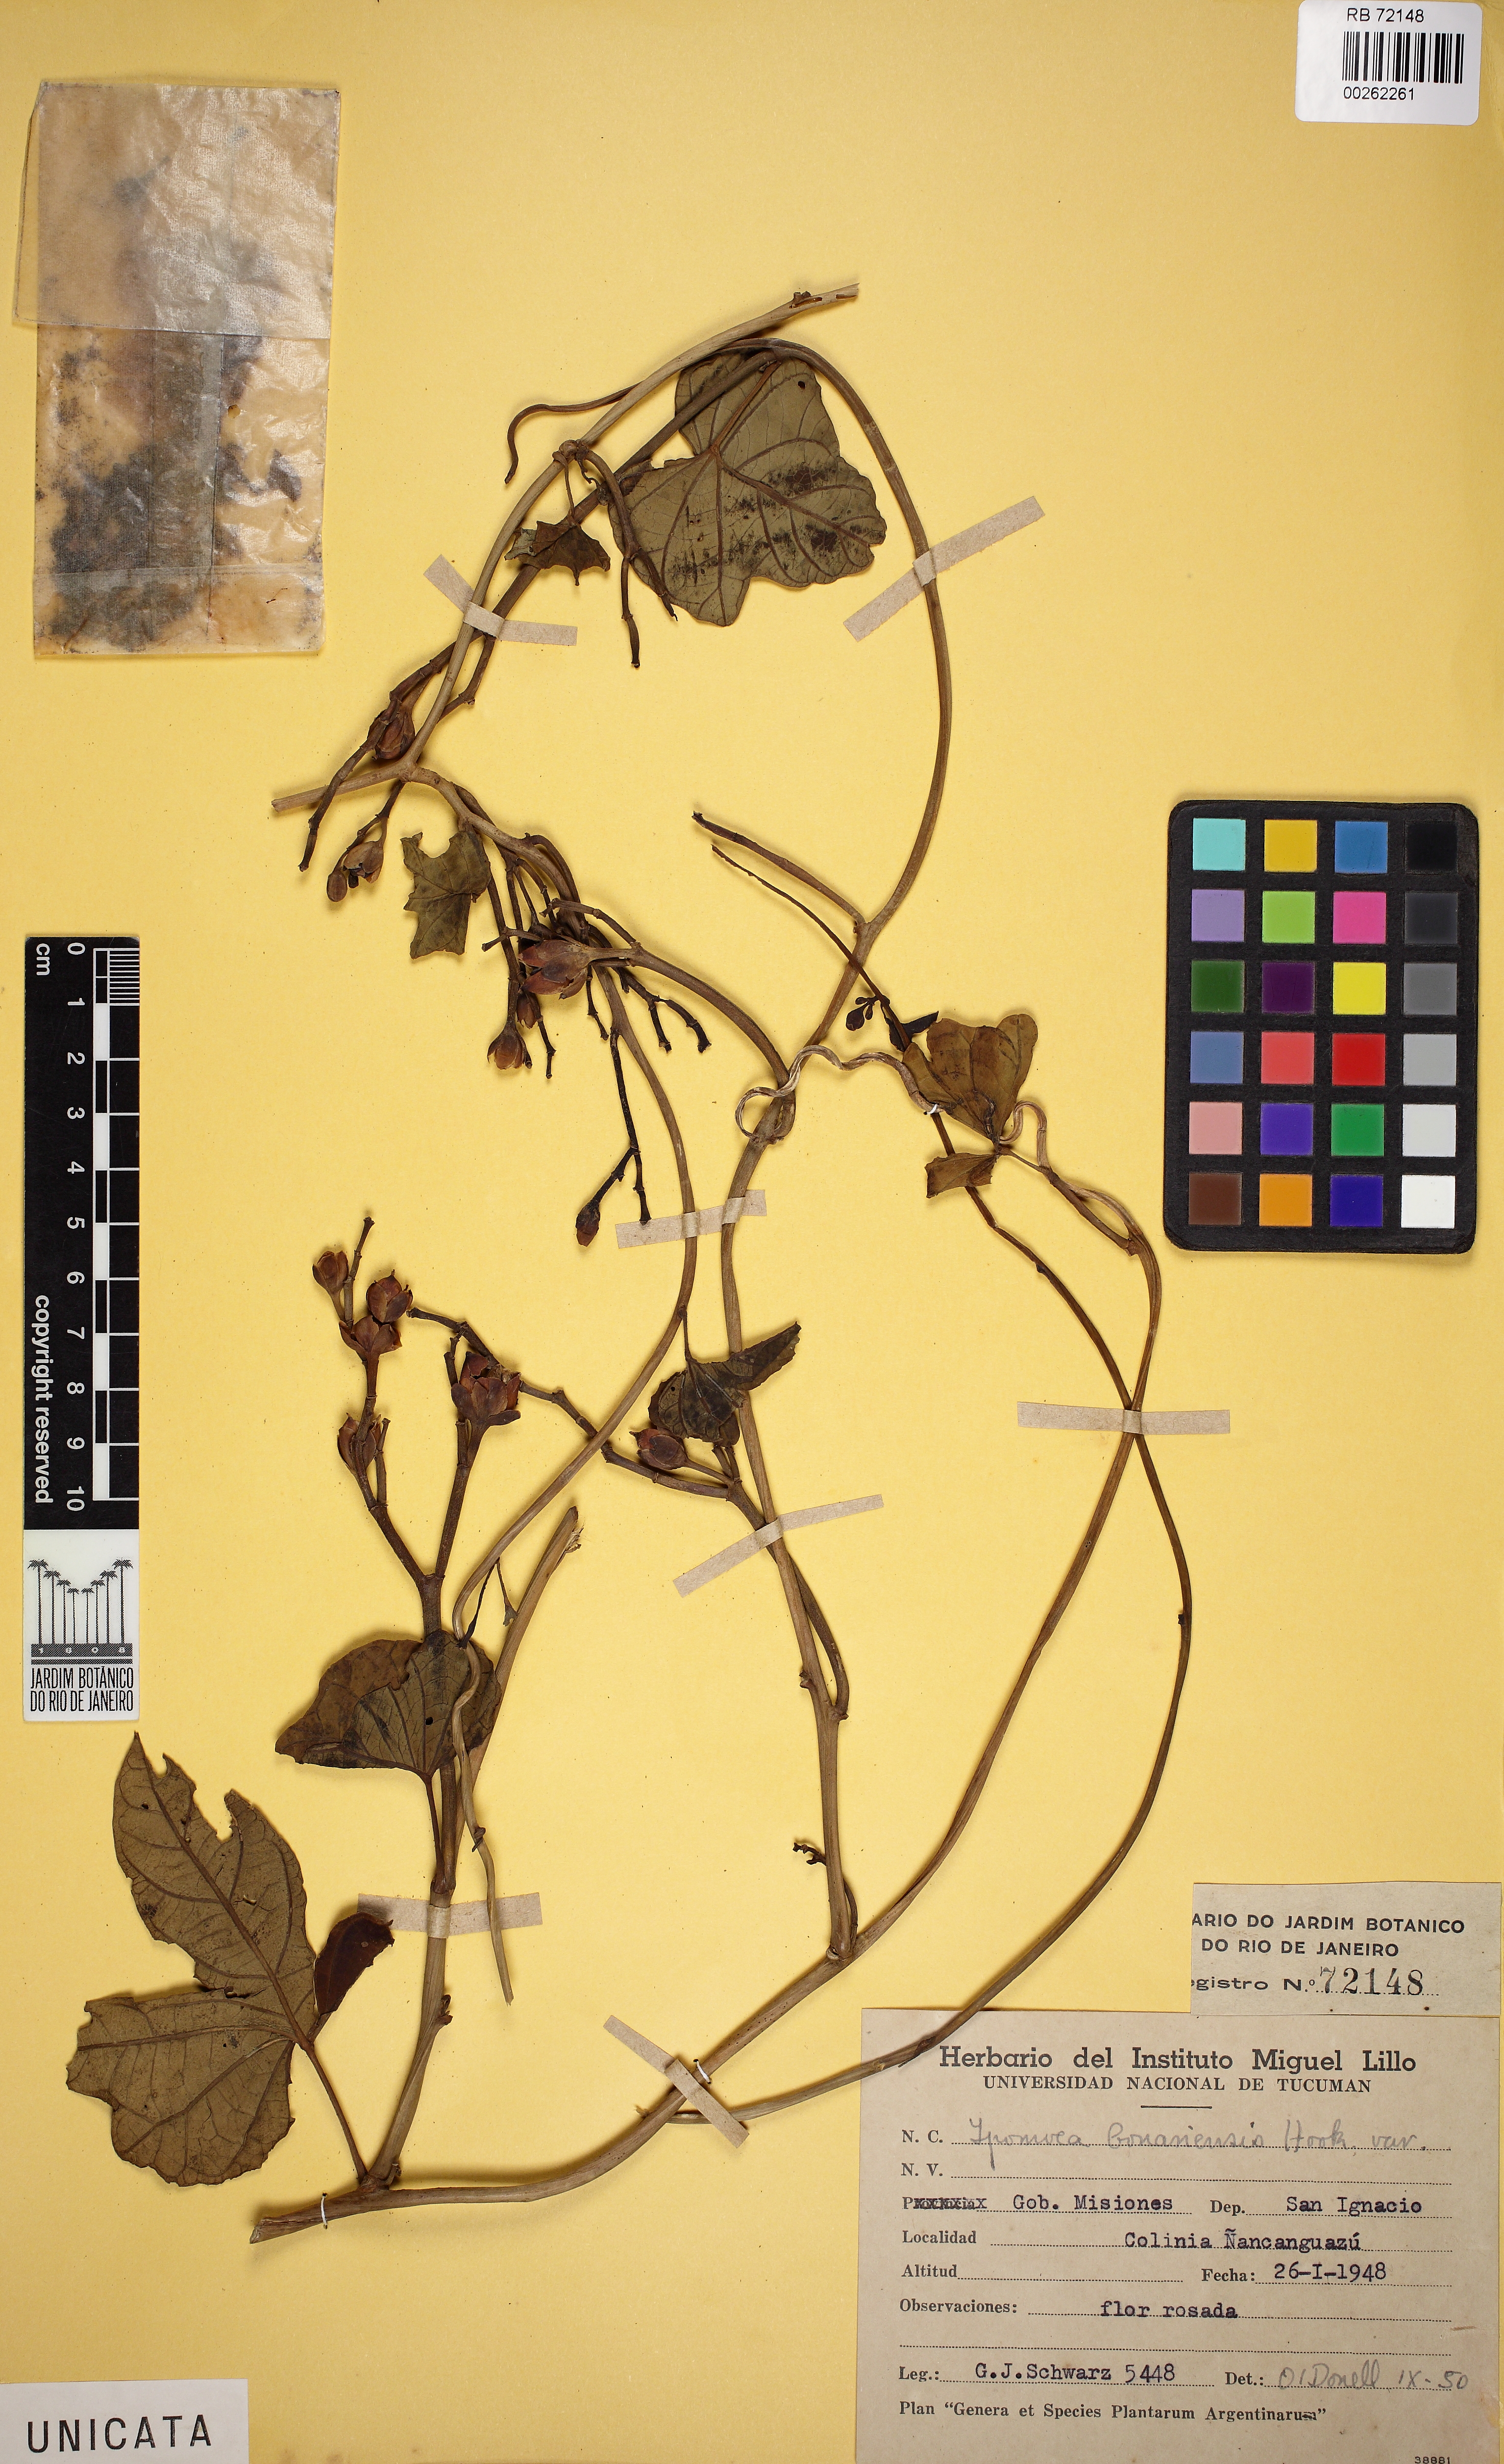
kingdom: Plantae
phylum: Tracheophyta
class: Magnoliopsida
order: Solanales
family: Convolvulaceae
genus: Ipomoea
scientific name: Ipomoea bonariensis
